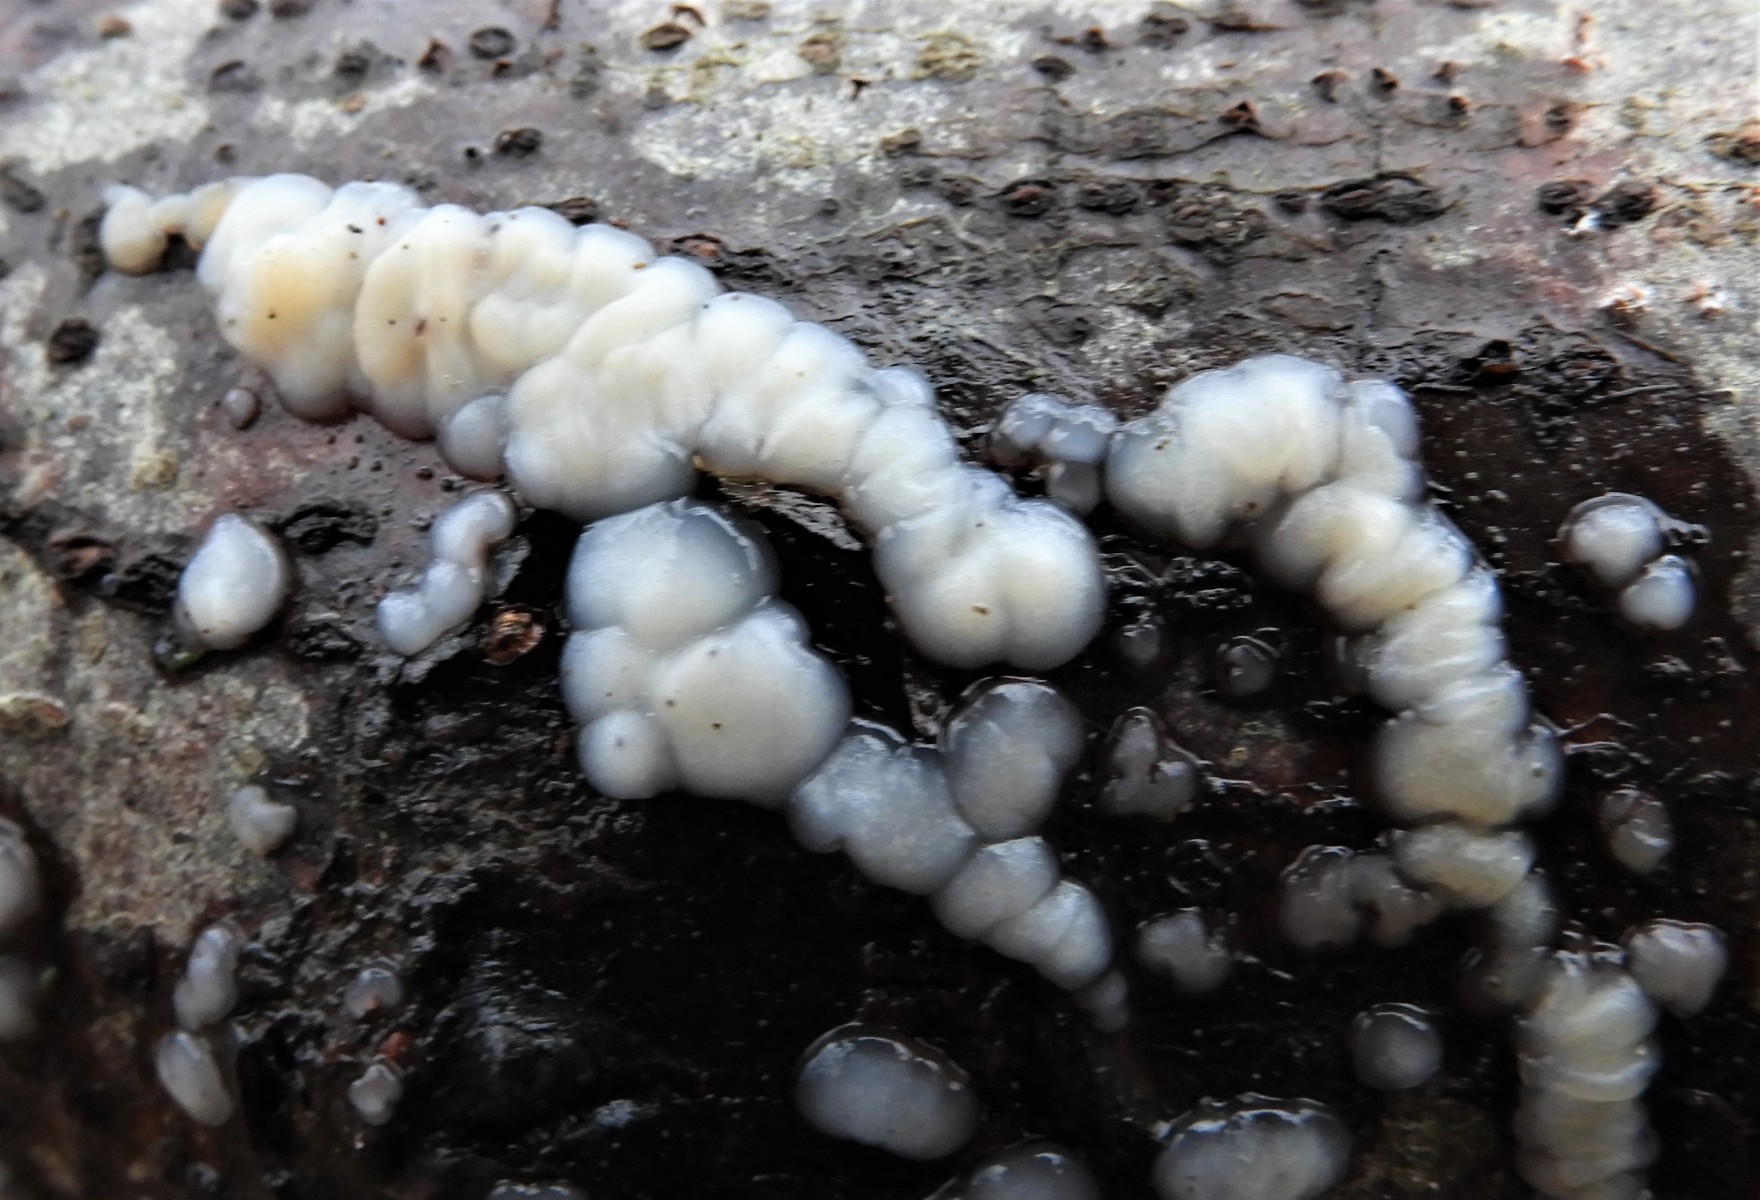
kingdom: Fungi
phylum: Basidiomycota
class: Agaricomycetes
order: Auriculariales
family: Auriculariaceae
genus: Exidia
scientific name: Exidia thuretiana
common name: hvidlig bævretop
